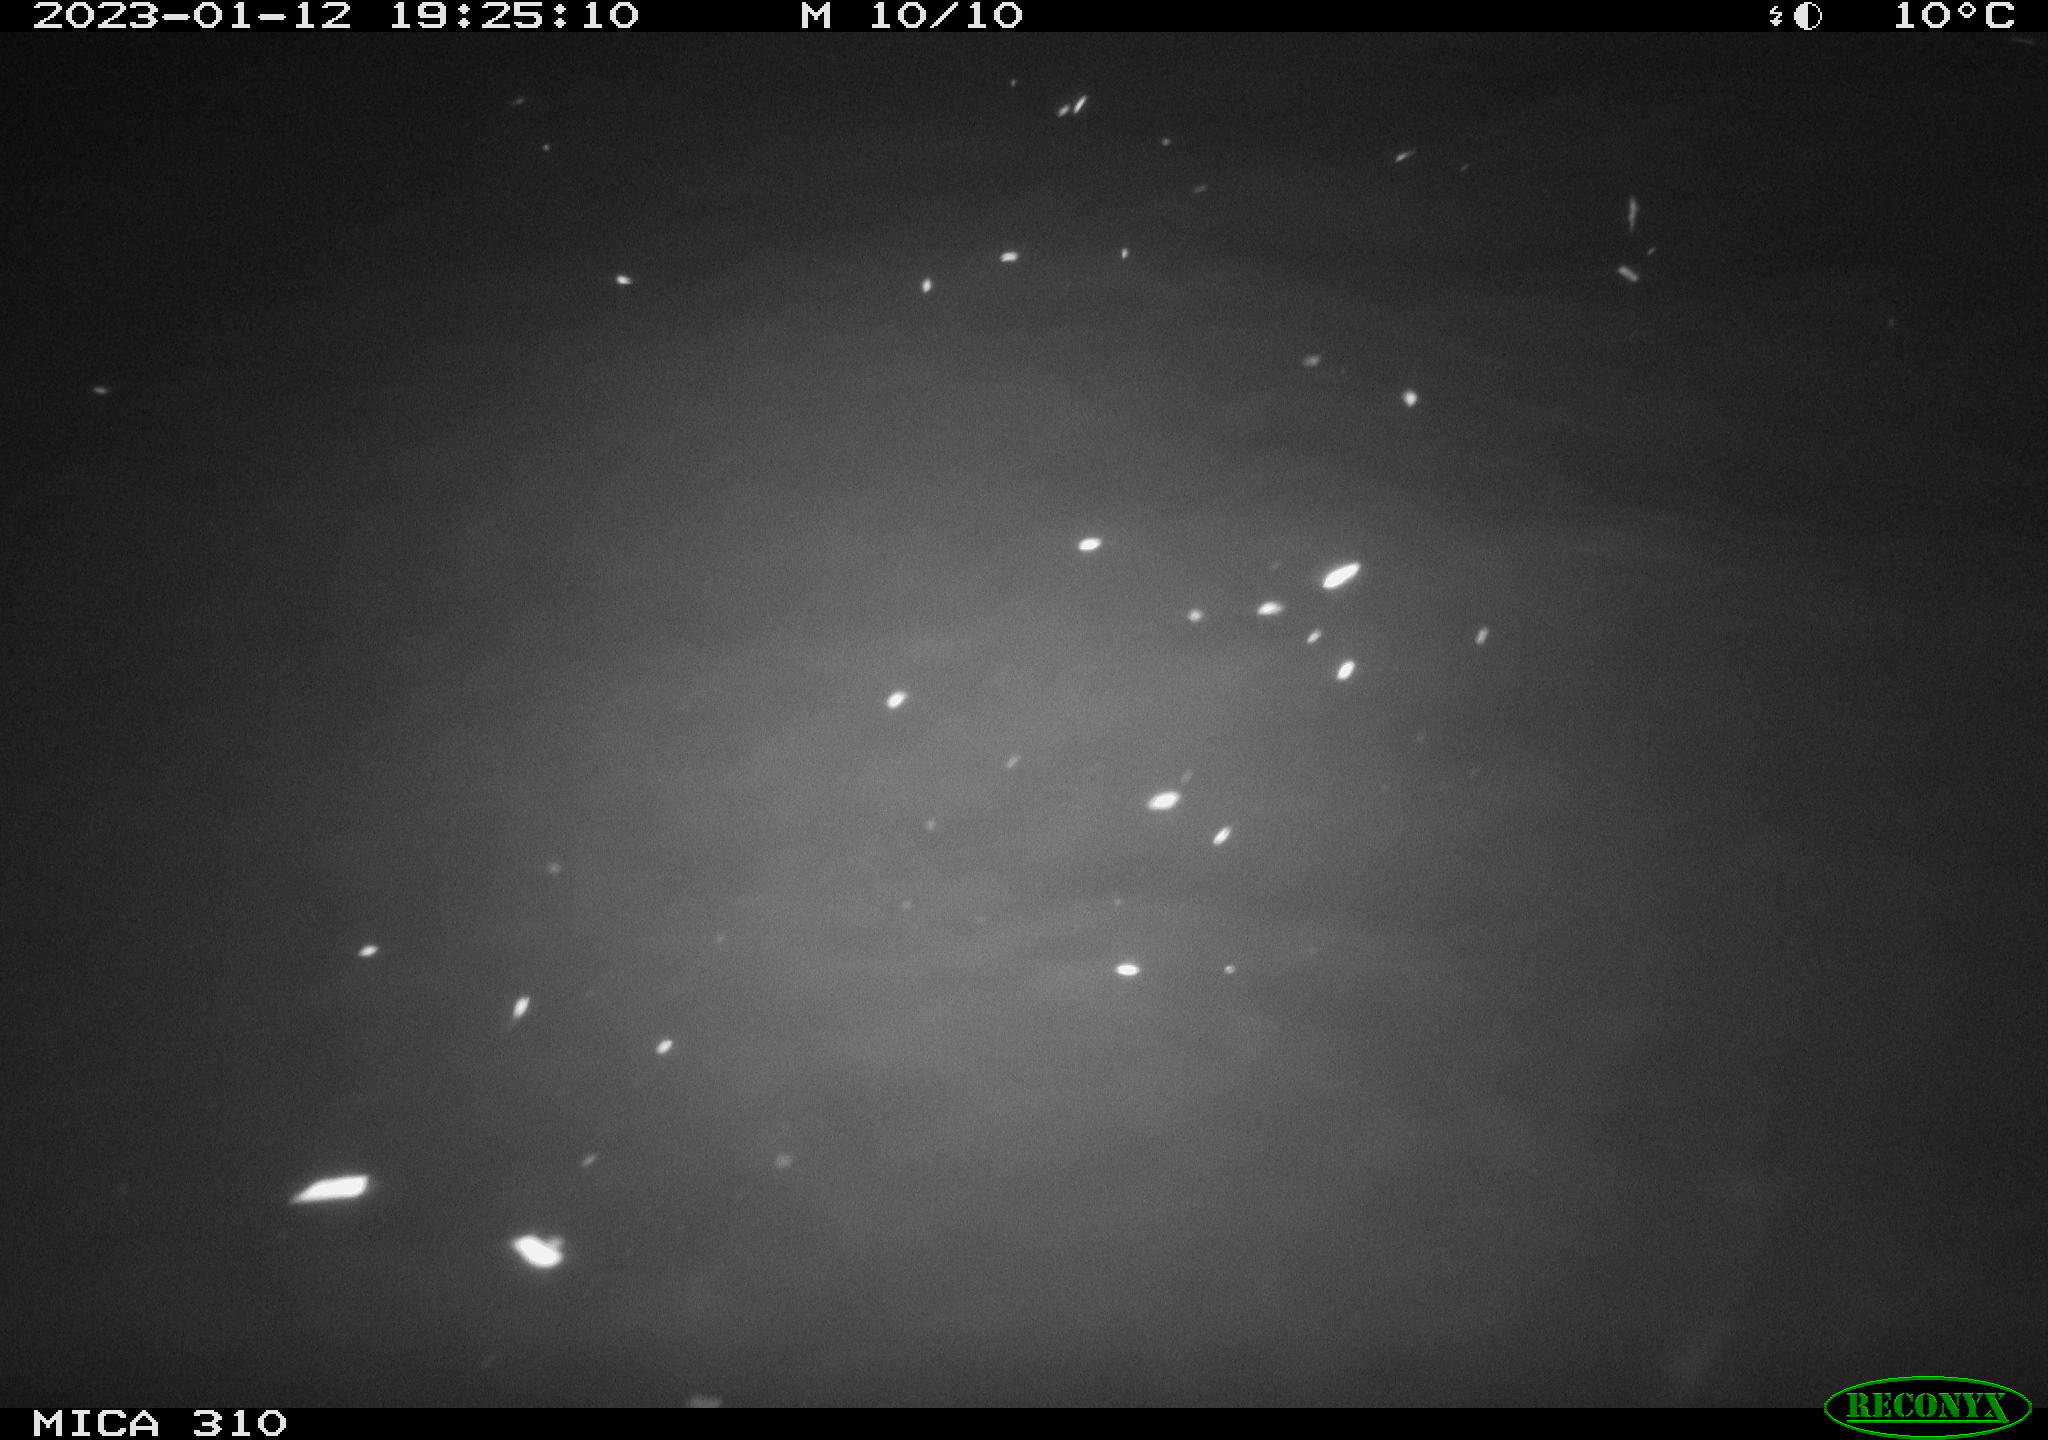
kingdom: Animalia
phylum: Chordata
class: Mammalia
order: Rodentia
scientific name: Rodentia
